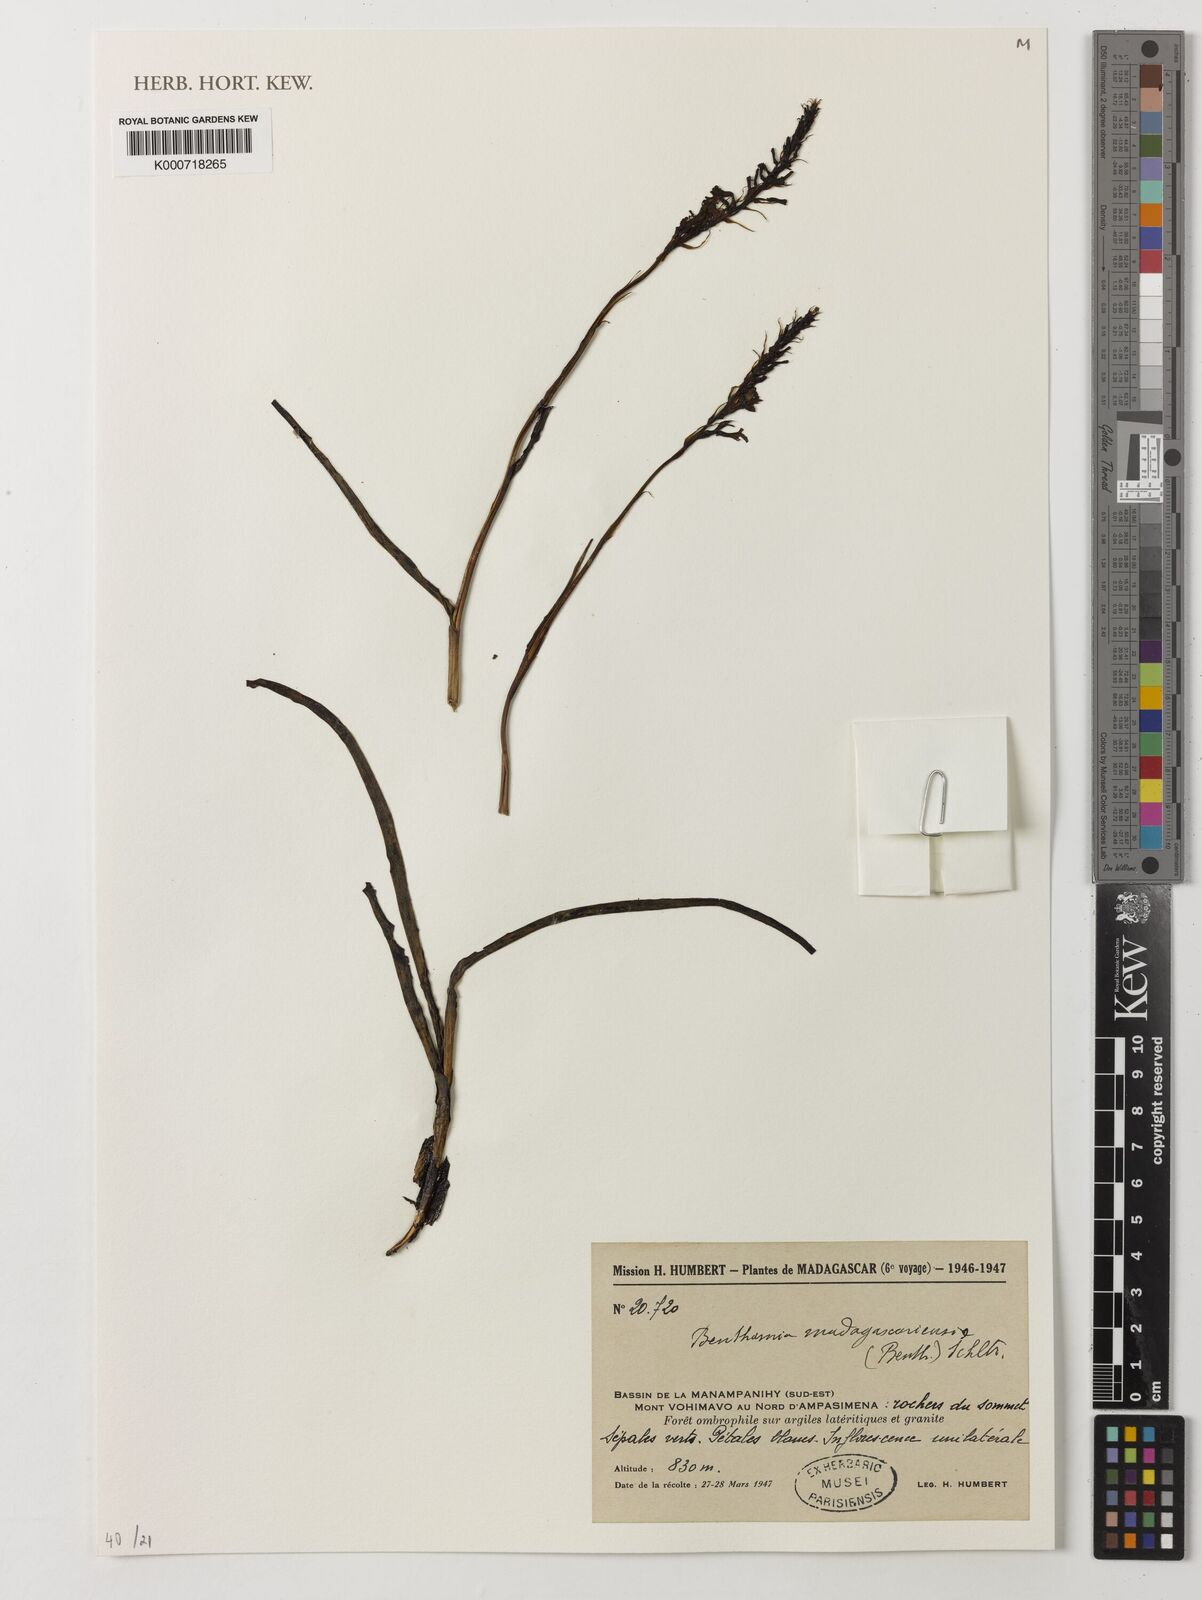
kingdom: Plantae
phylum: Tracheophyta
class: Liliopsida
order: Asparagales
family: Orchidaceae
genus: Benthamia
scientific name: Benthamia madagascariensis
